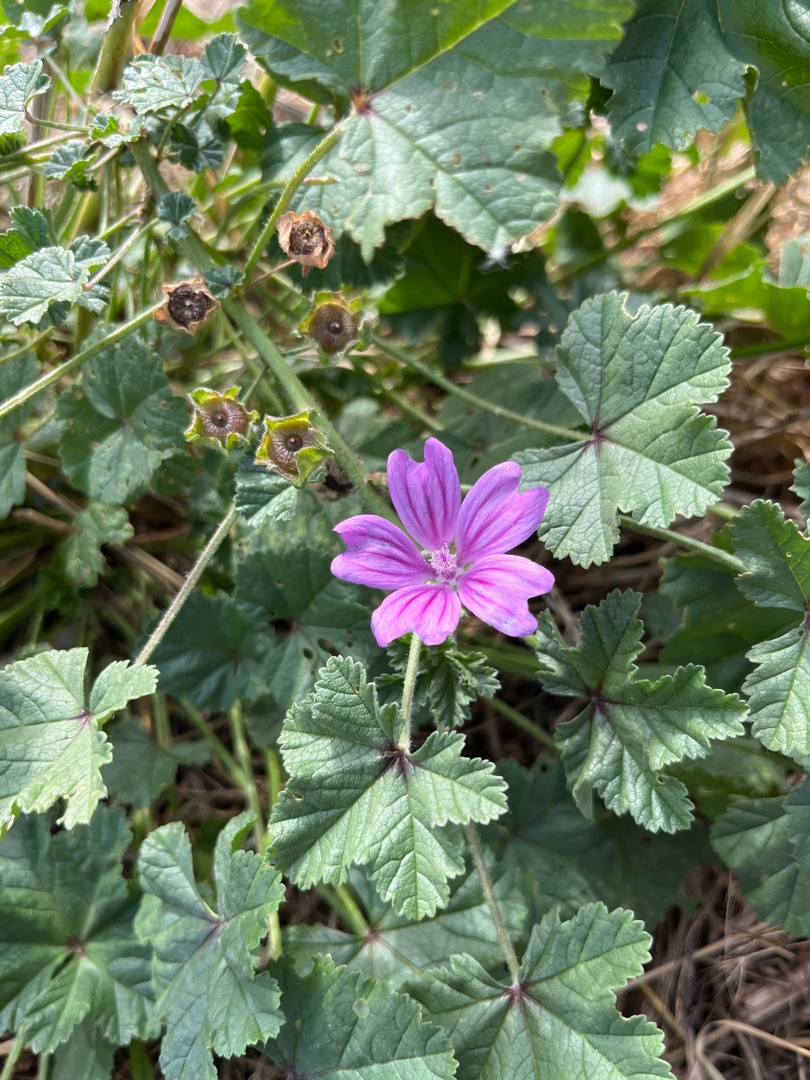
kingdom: Plantae
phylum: Tracheophyta
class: Magnoliopsida
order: Malvales
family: Malvaceae
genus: Malva
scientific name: Malva sylvestris
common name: Almindelig katost
